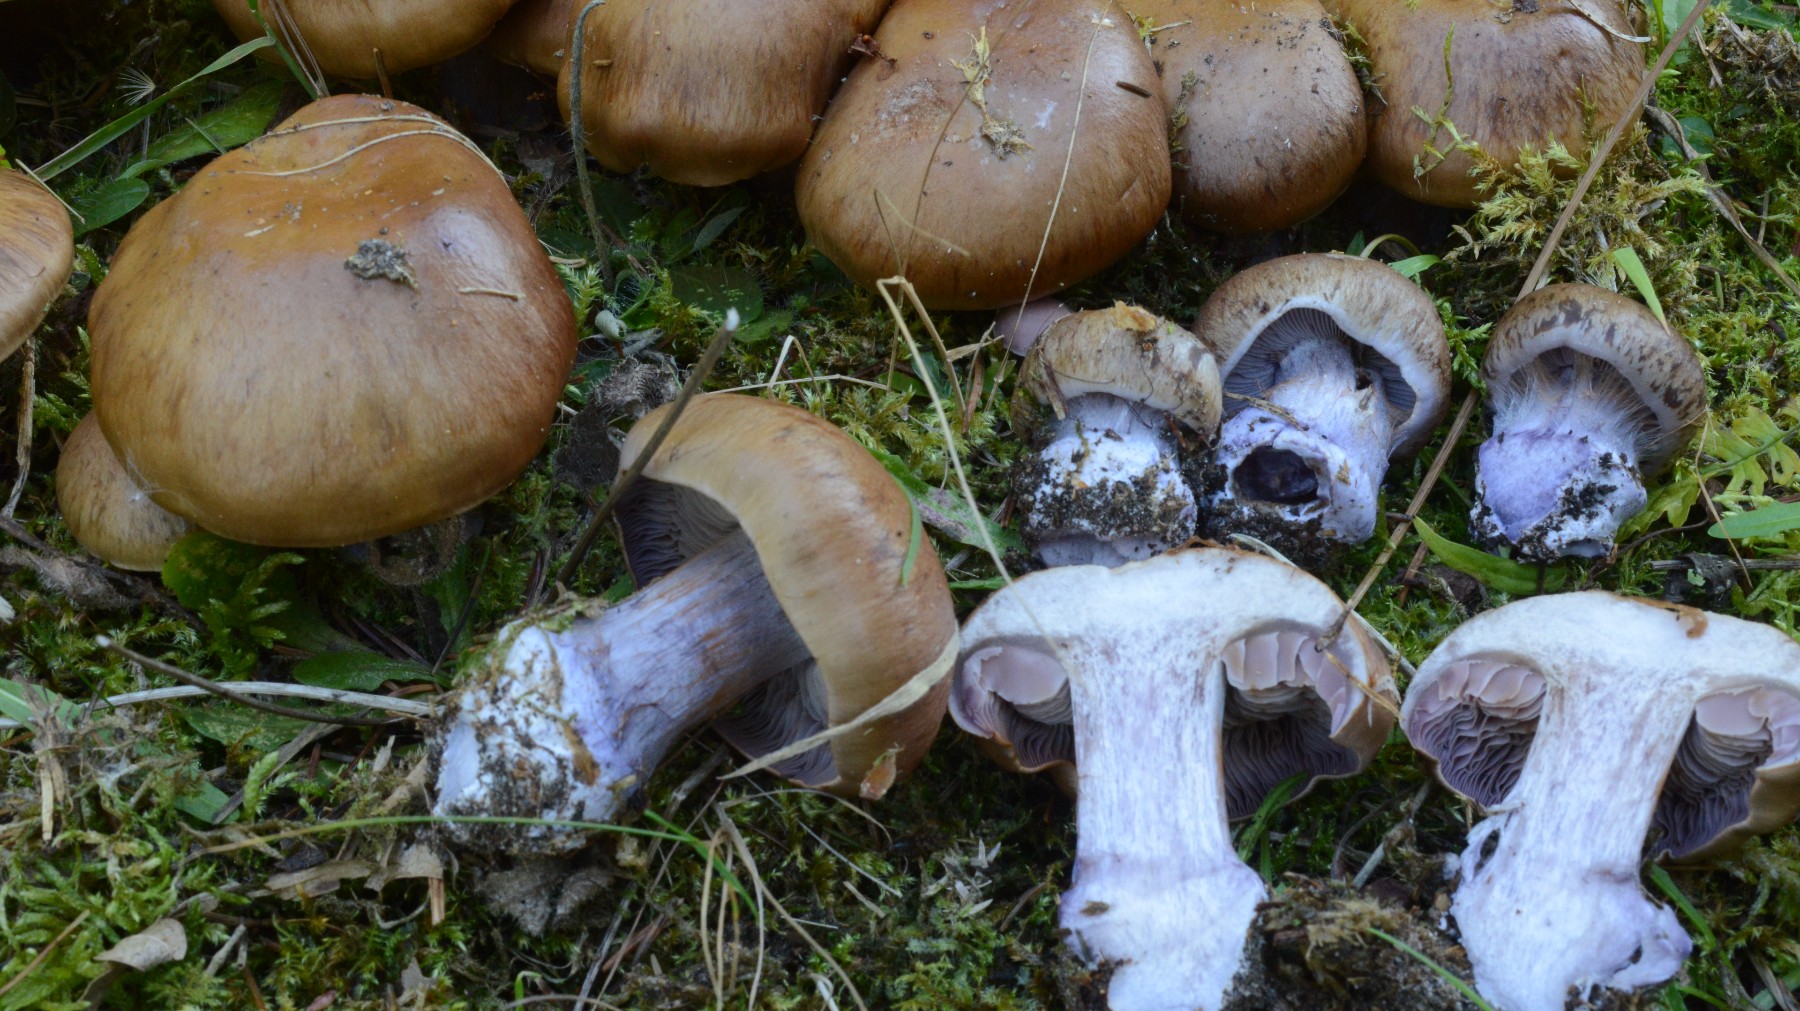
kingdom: Fungi
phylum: Basidiomycota
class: Agaricomycetes
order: Agaricales
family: Cortinariaceae
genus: Thaxterogaster
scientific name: Thaxterogaster purpurascens
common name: purpurbrun slørhat
